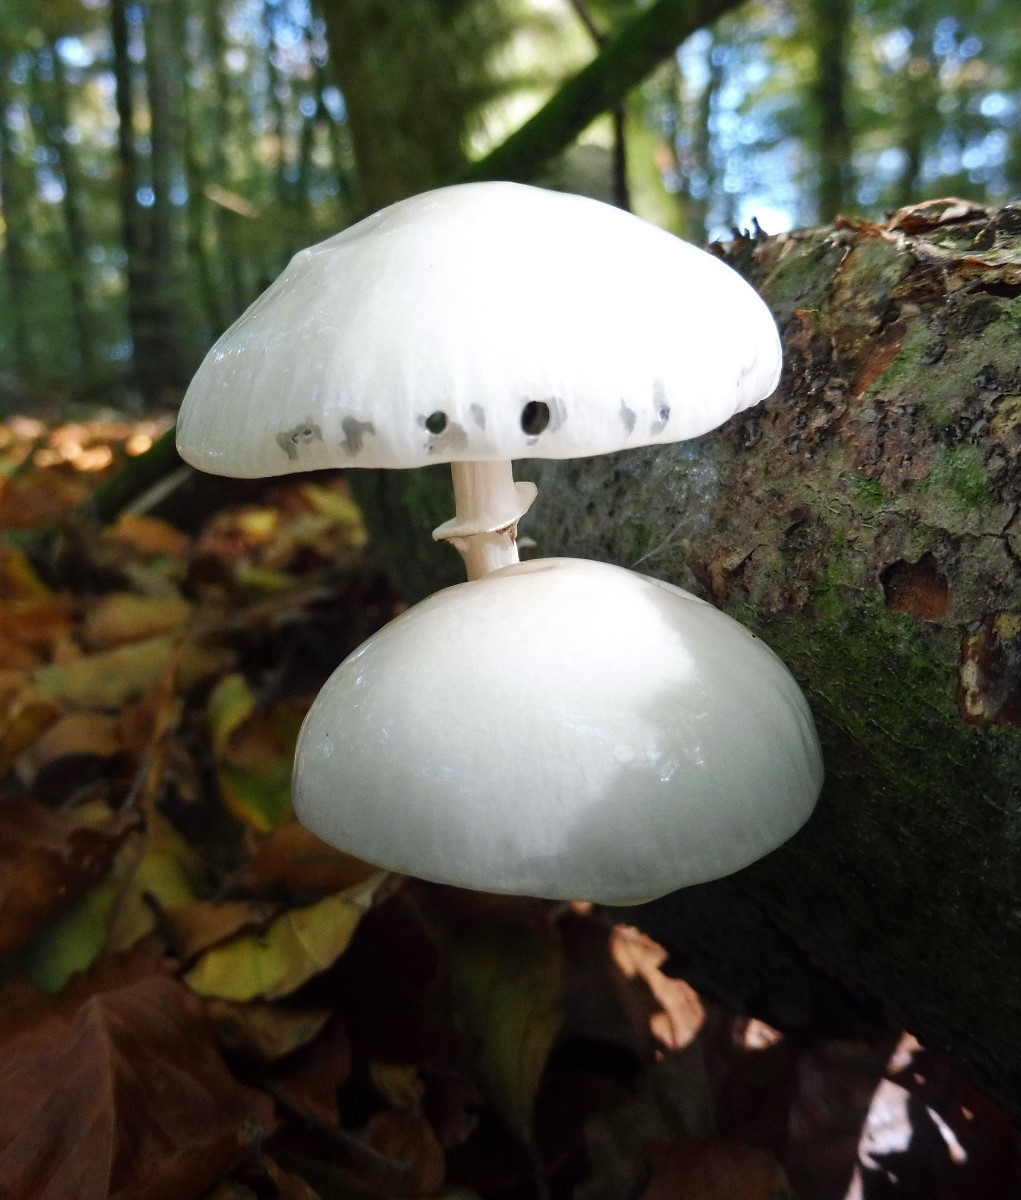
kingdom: Fungi
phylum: Basidiomycota
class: Agaricomycetes
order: Agaricales
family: Physalacriaceae
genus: Mucidula
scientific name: Mucidula mucida
